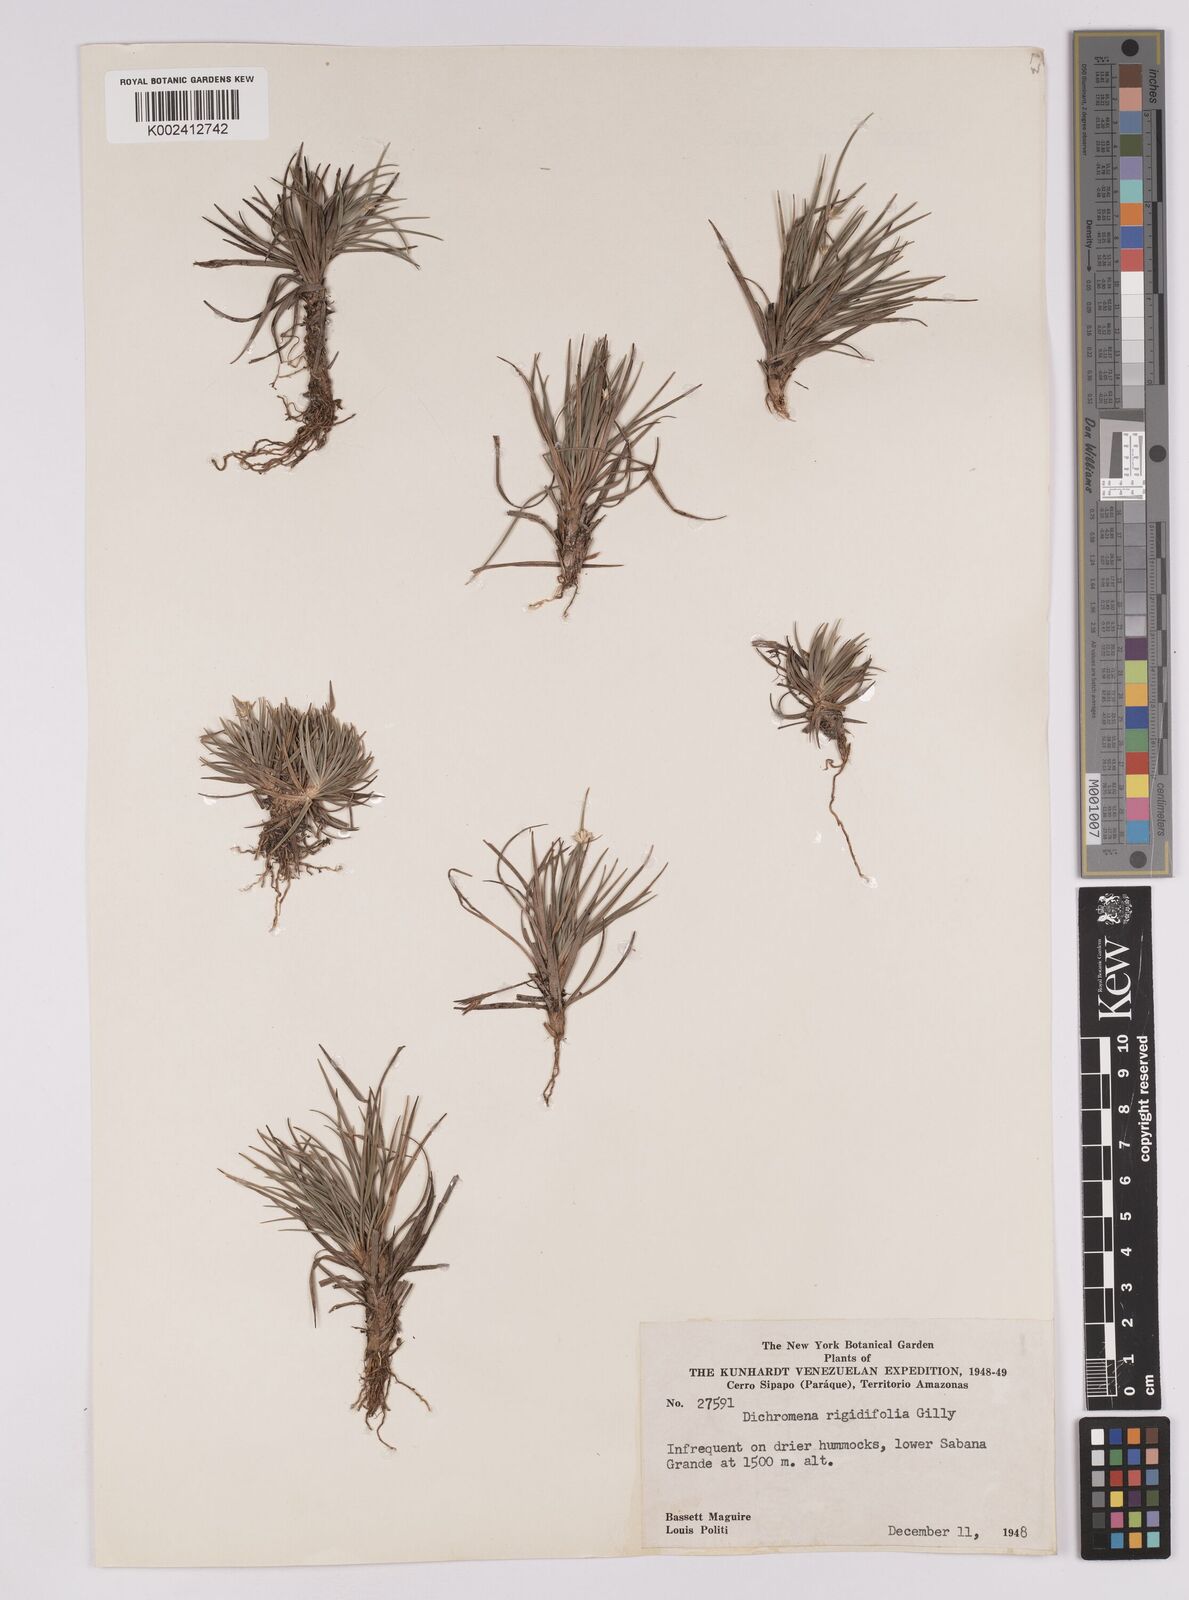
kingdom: Plantae
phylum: Tracheophyta
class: Liliopsida
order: Poales
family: Cyperaceae
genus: Rhynchospora
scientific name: Rhynchospora rigidifolia
